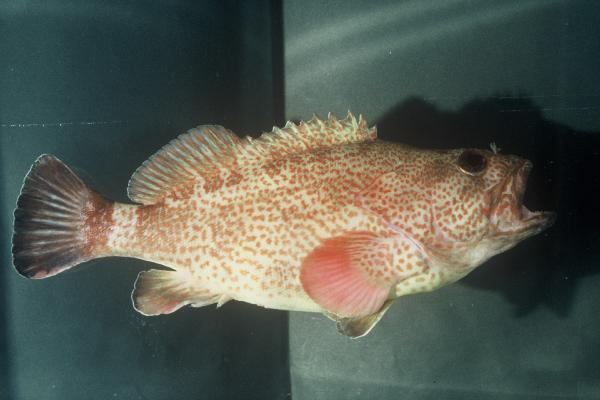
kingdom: Animalia
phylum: Chordata
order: Perciformes
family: Serranidae
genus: Acanthistius
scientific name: Acanthistius sebastoides
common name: Koester
